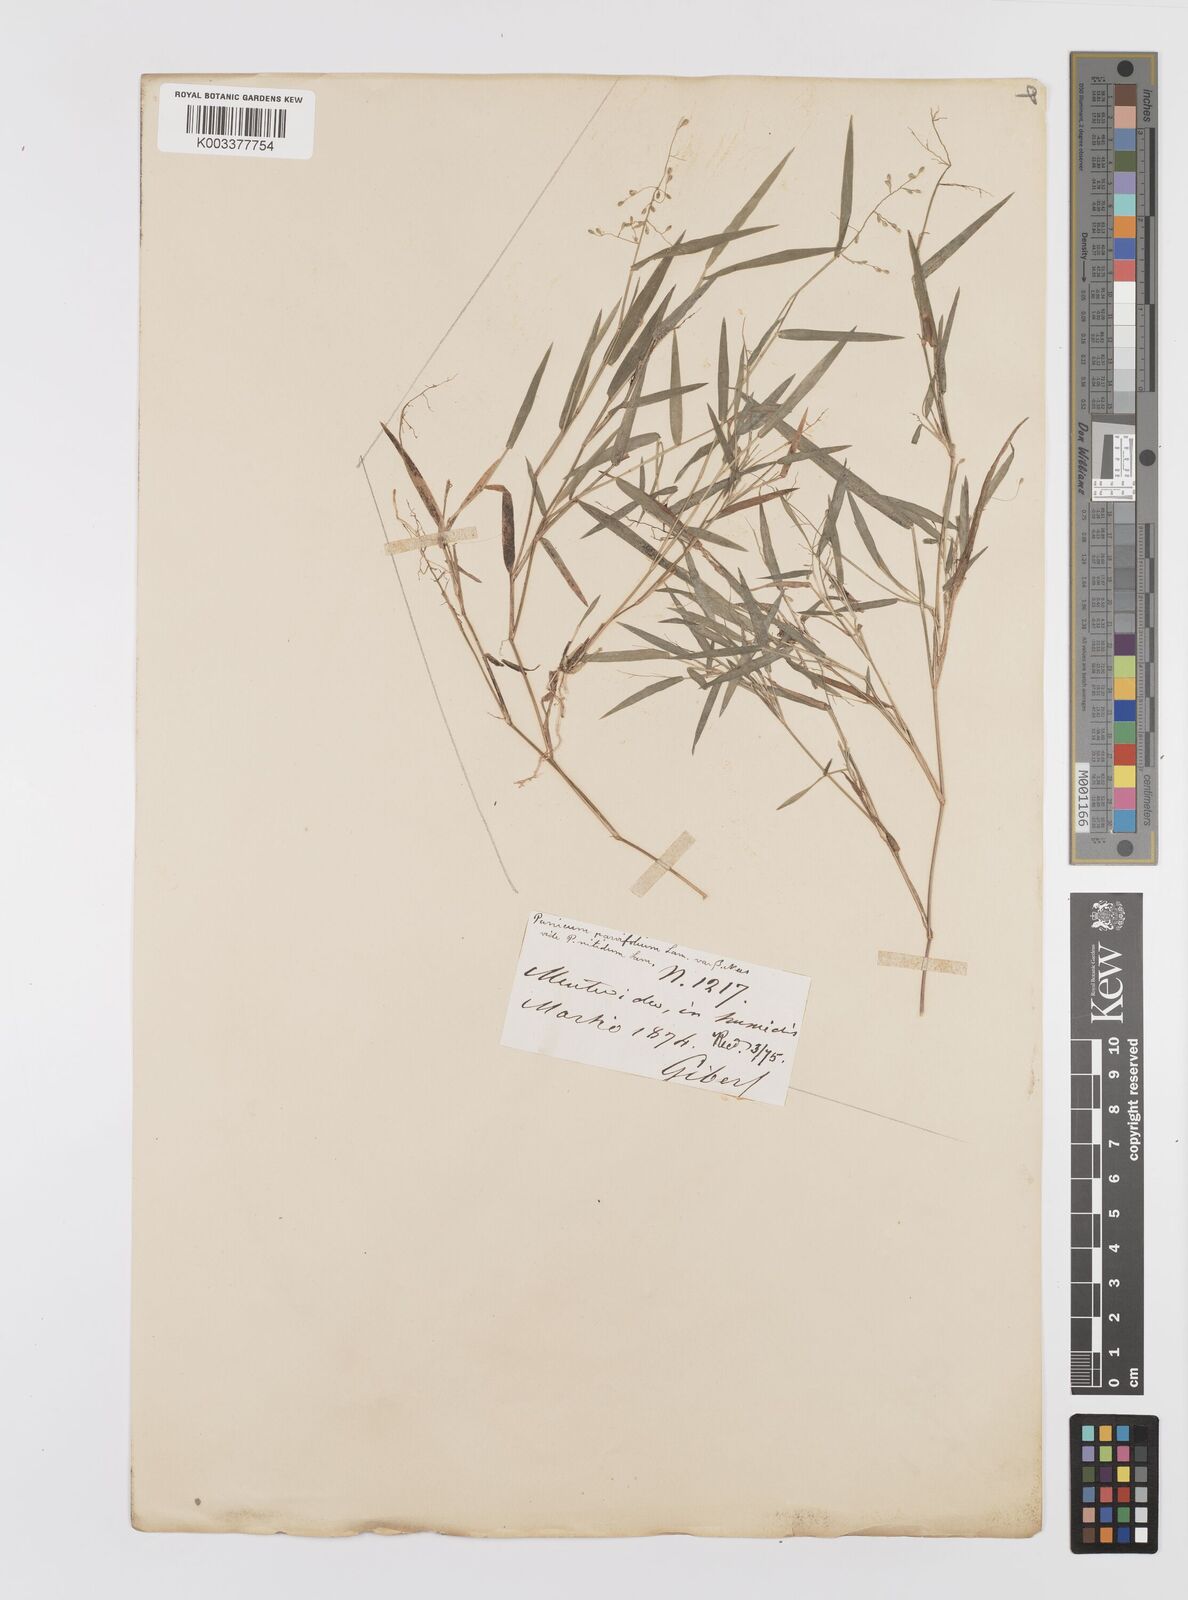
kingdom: Plantae
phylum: Tracheophyta
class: Liliopsida
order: Poales
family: Poaceae
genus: Trichanthecium
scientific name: Trichanthecium parvifolium
